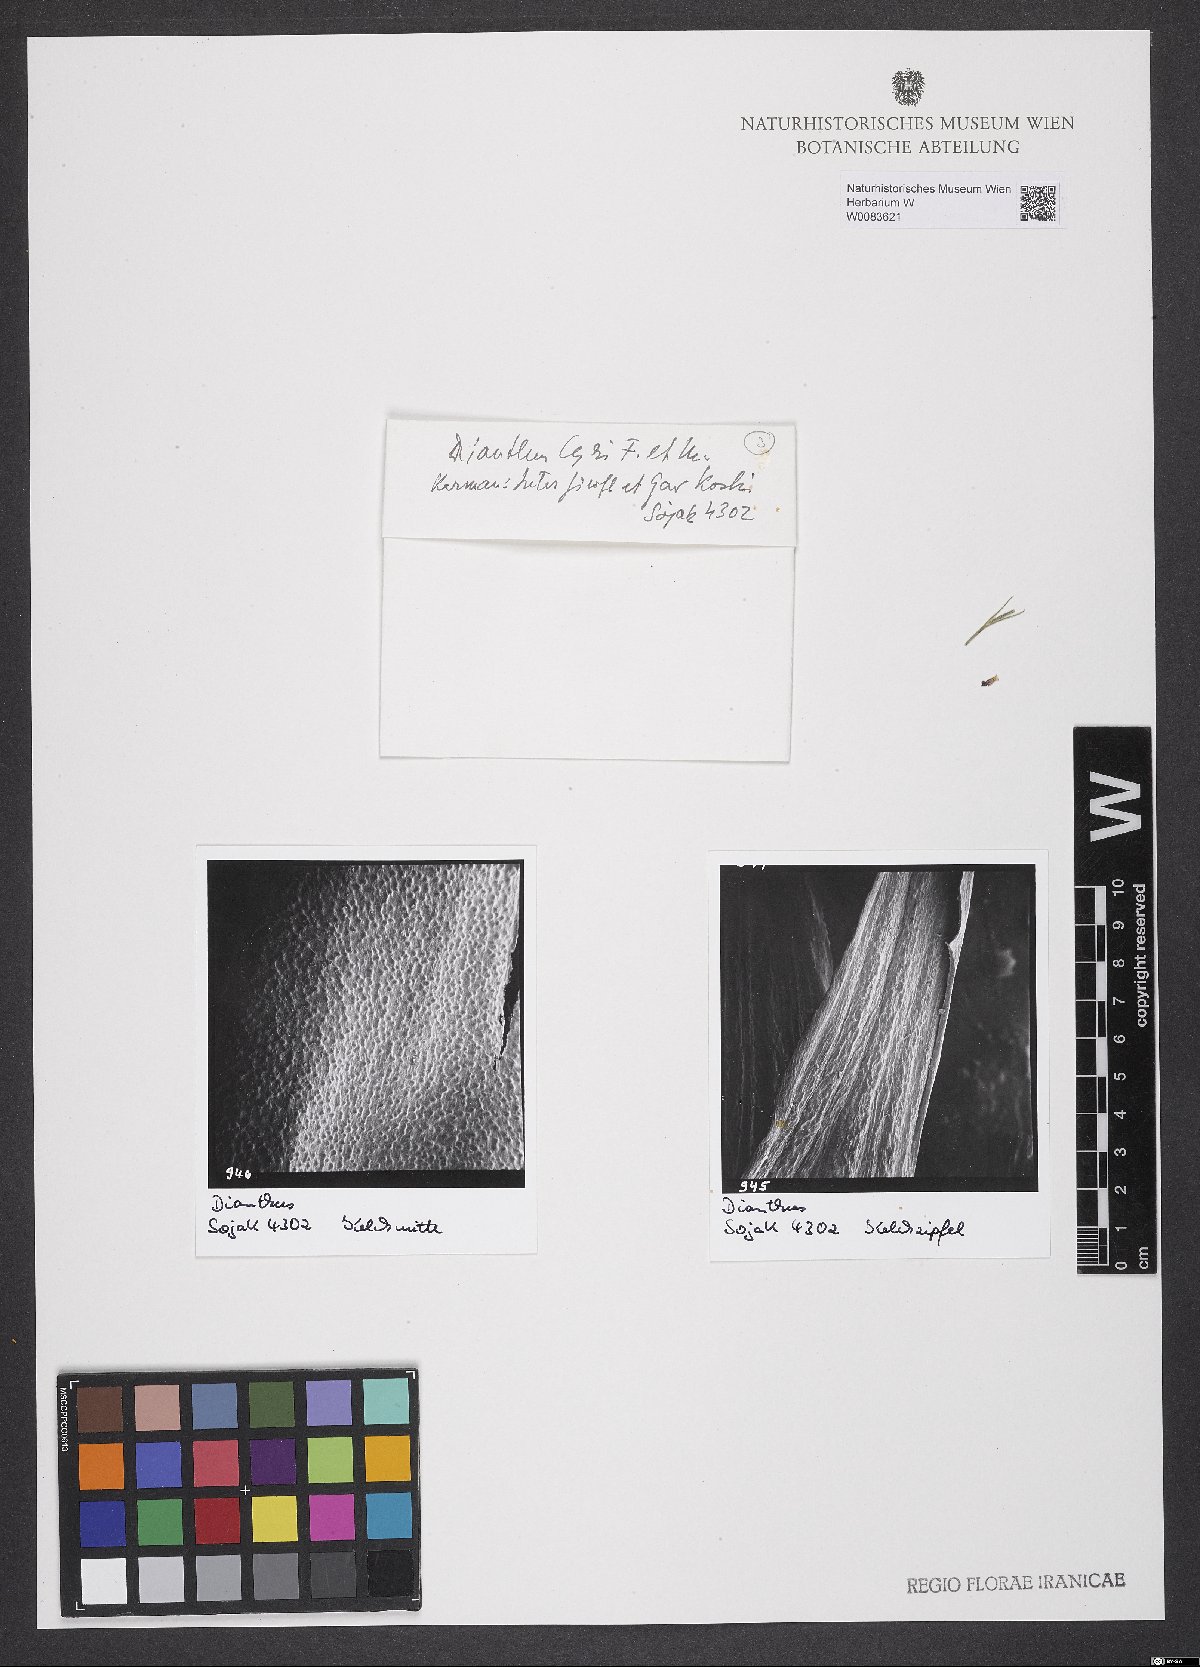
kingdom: Plantae
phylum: Tracheophyta
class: Magnoliopsida
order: Caryophyllales
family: Caryophyllaceae
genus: Dianthus
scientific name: Dianthus cyri
